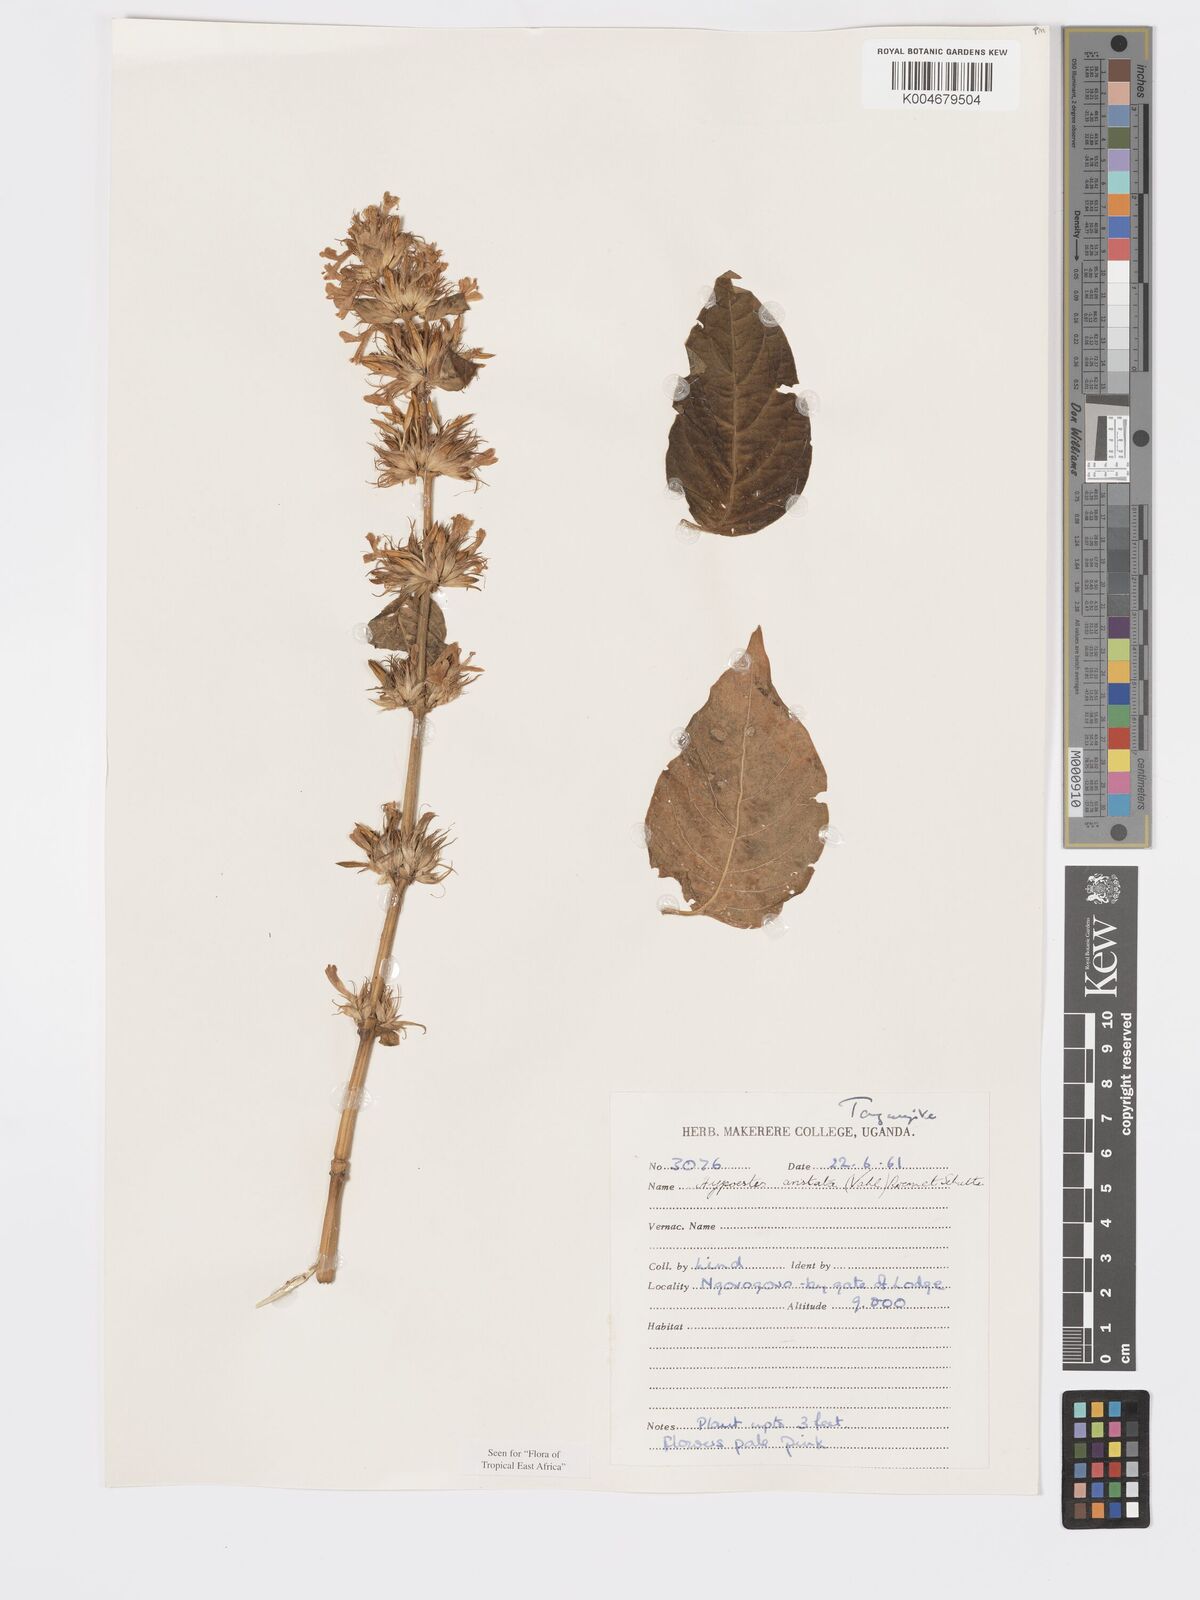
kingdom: Plantae
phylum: Tracheophyta
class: Magnoliopsida
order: Lamiales
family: Acanthaceae
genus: Hypoestes
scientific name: Hypoestes aristata
